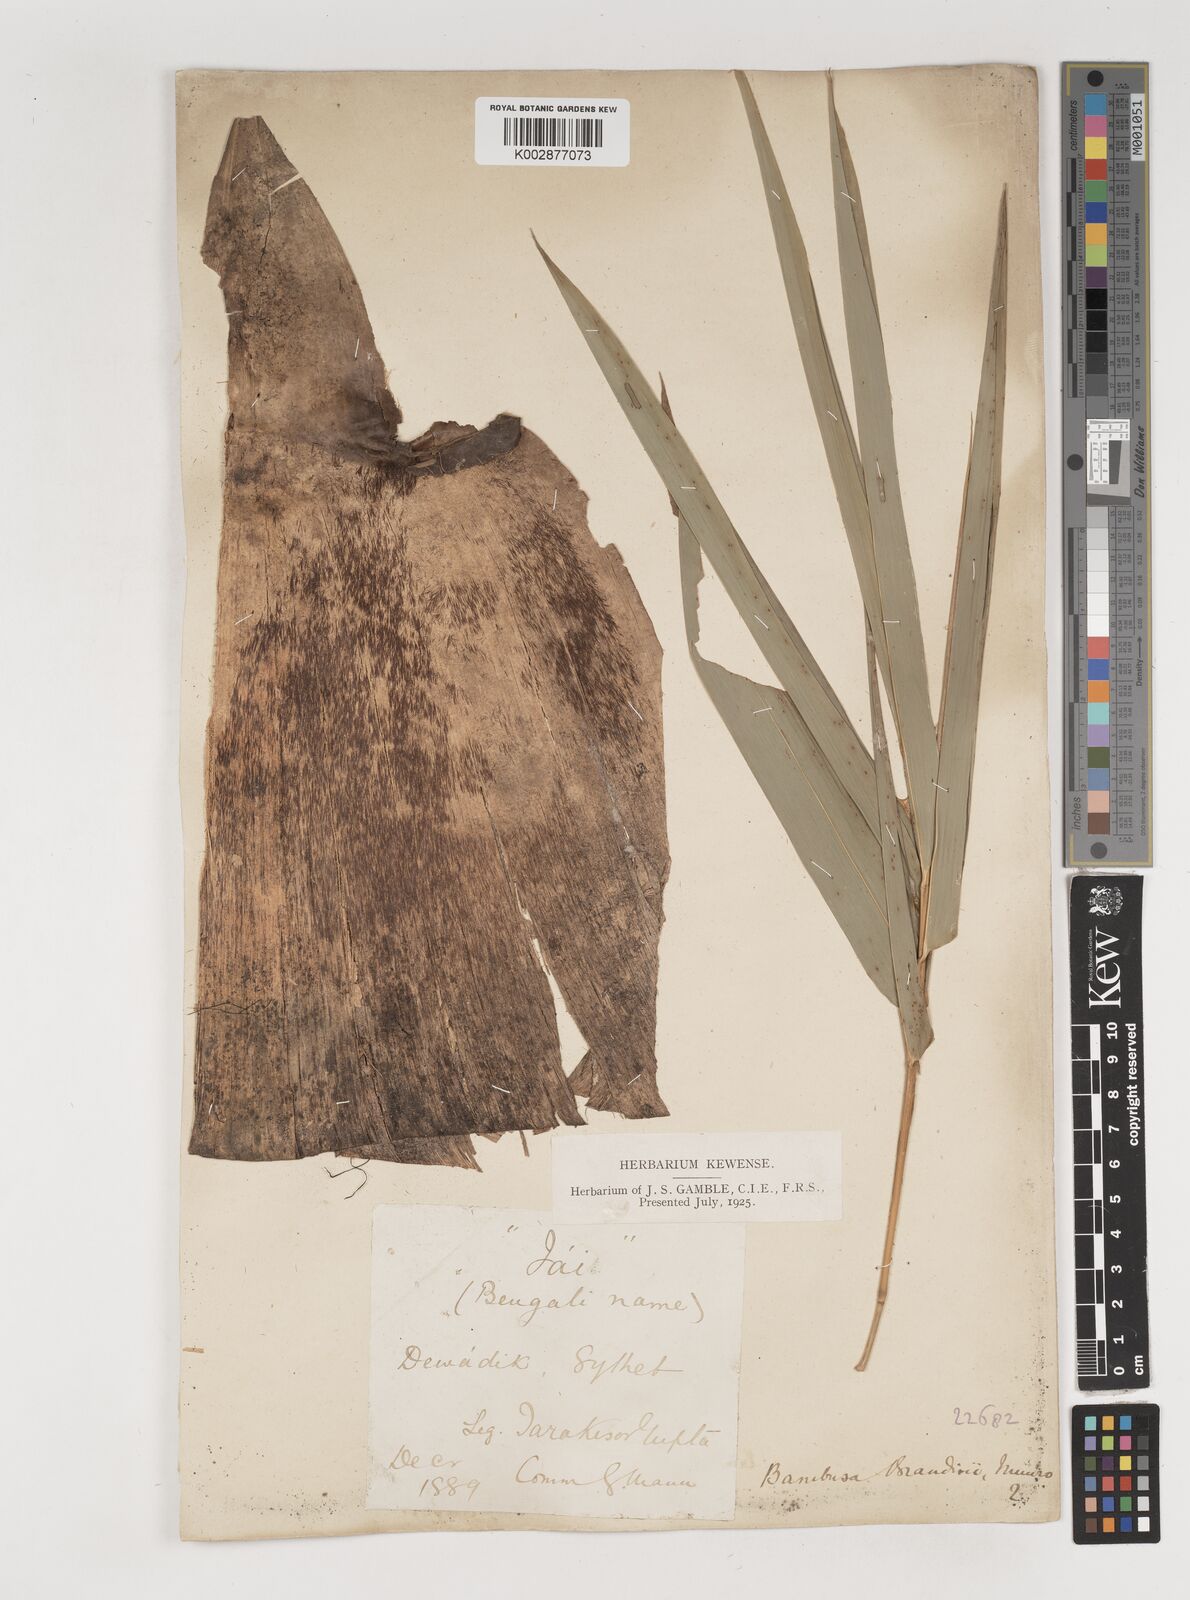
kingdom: Plantae
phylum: Tracheophyta
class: Liliopsida
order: Poales
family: Poaceae
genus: Bambusa
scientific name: Bambusa
